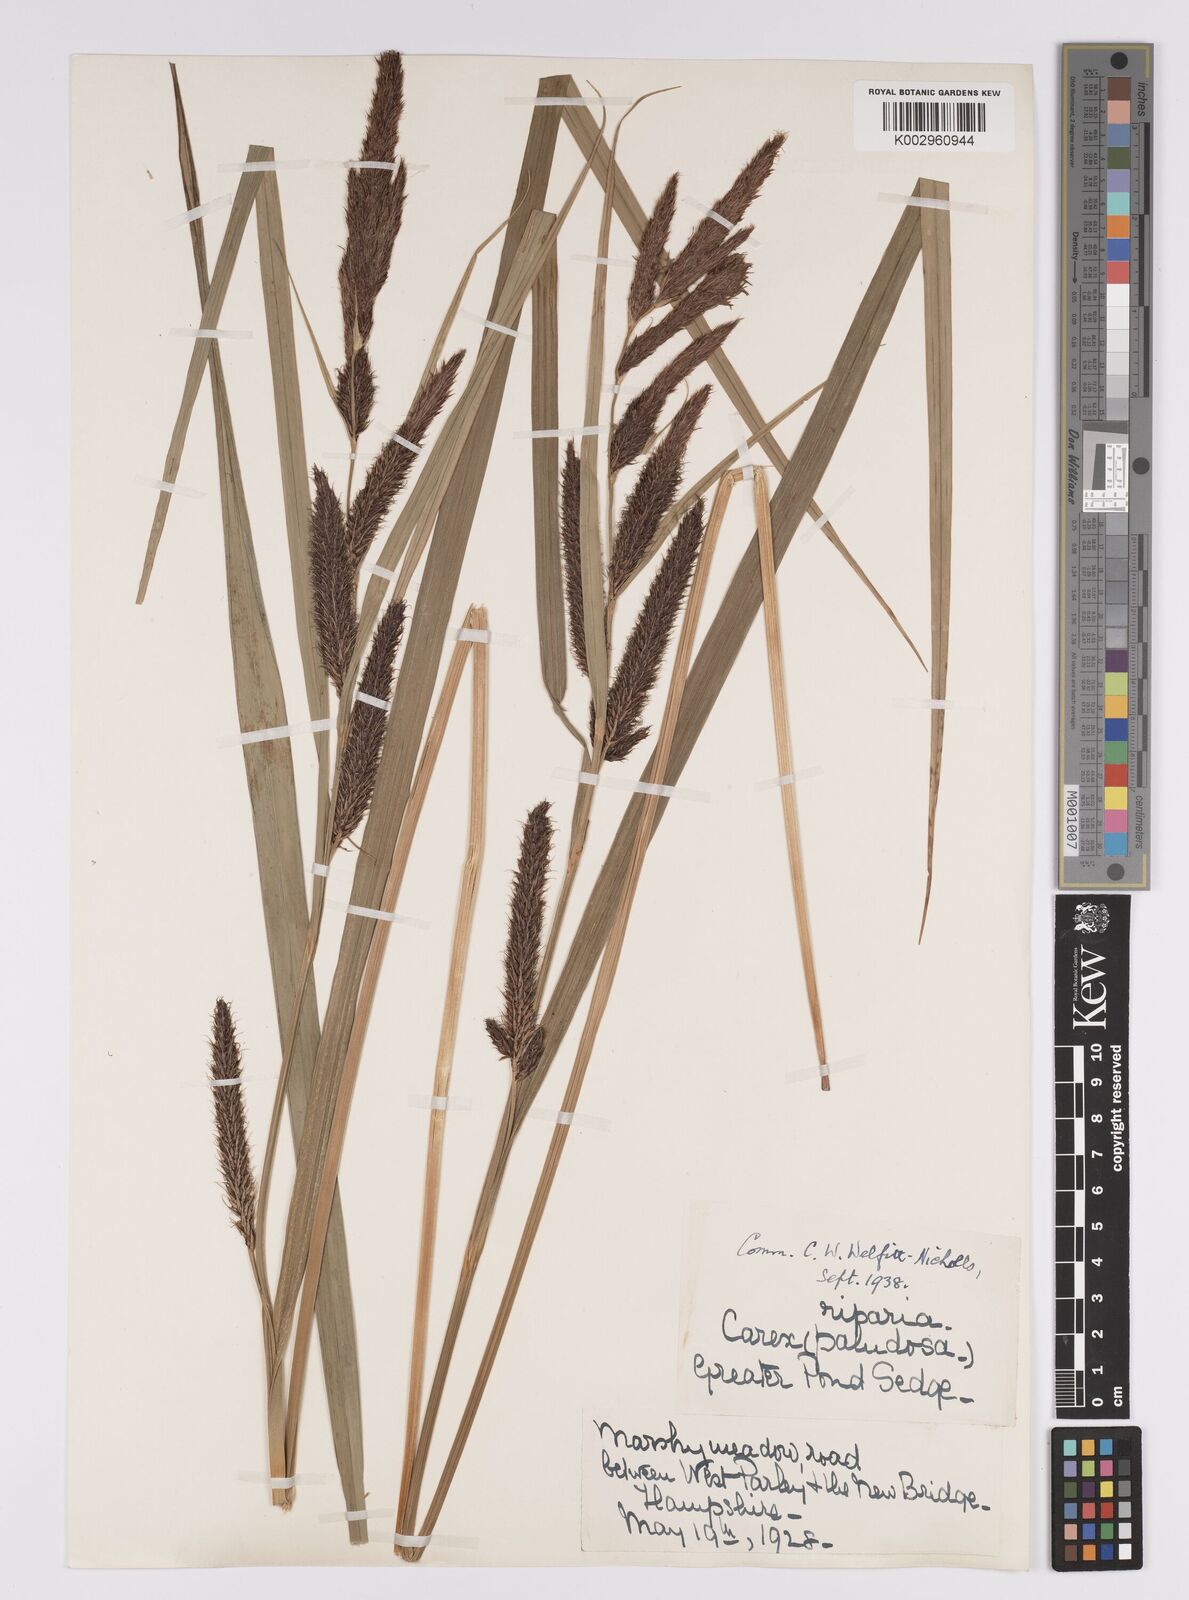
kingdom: Plantae
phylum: Tracheophyta
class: Liliopsida
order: Poales
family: Cyperaceae
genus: Carex
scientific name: Carex riparia
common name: Greater pond-sedge
